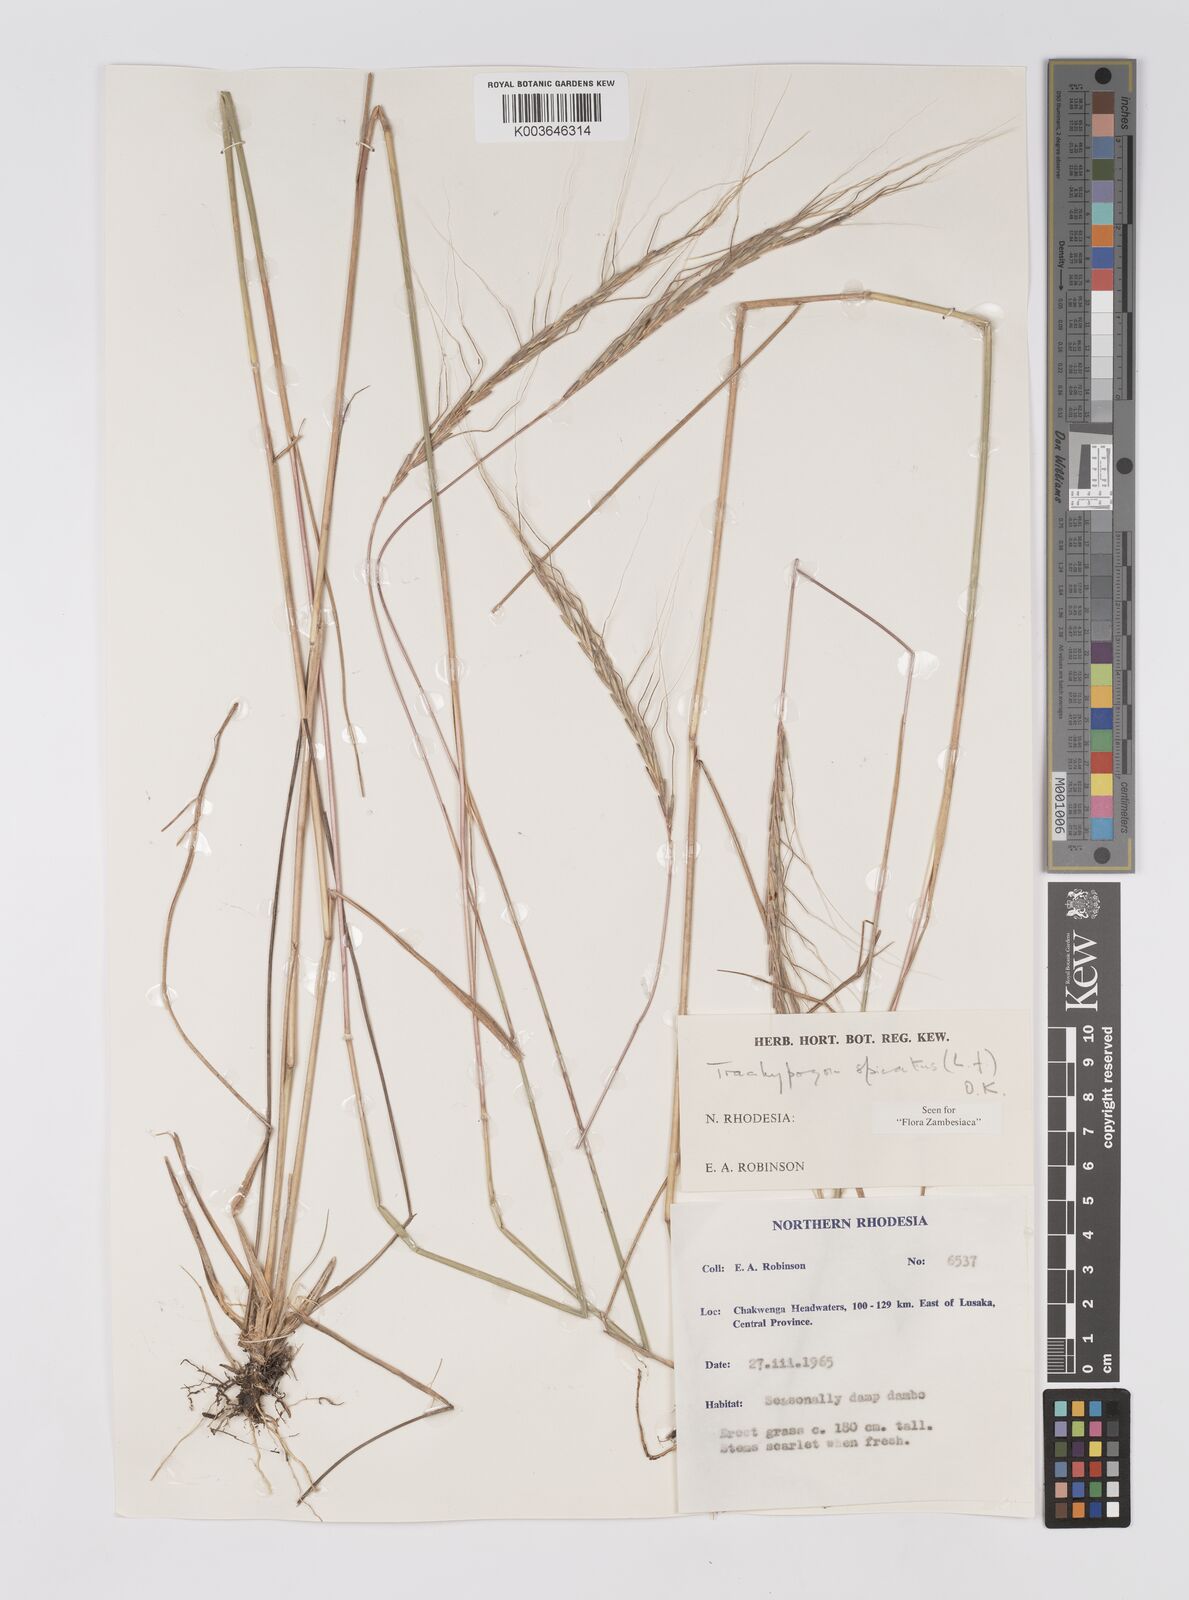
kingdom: Plantae
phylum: Tracheophyta
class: Liliopsida
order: Poales
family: Poaceae
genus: Trachypogon
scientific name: Trachypogon spicatus
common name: Crinkle-awn
